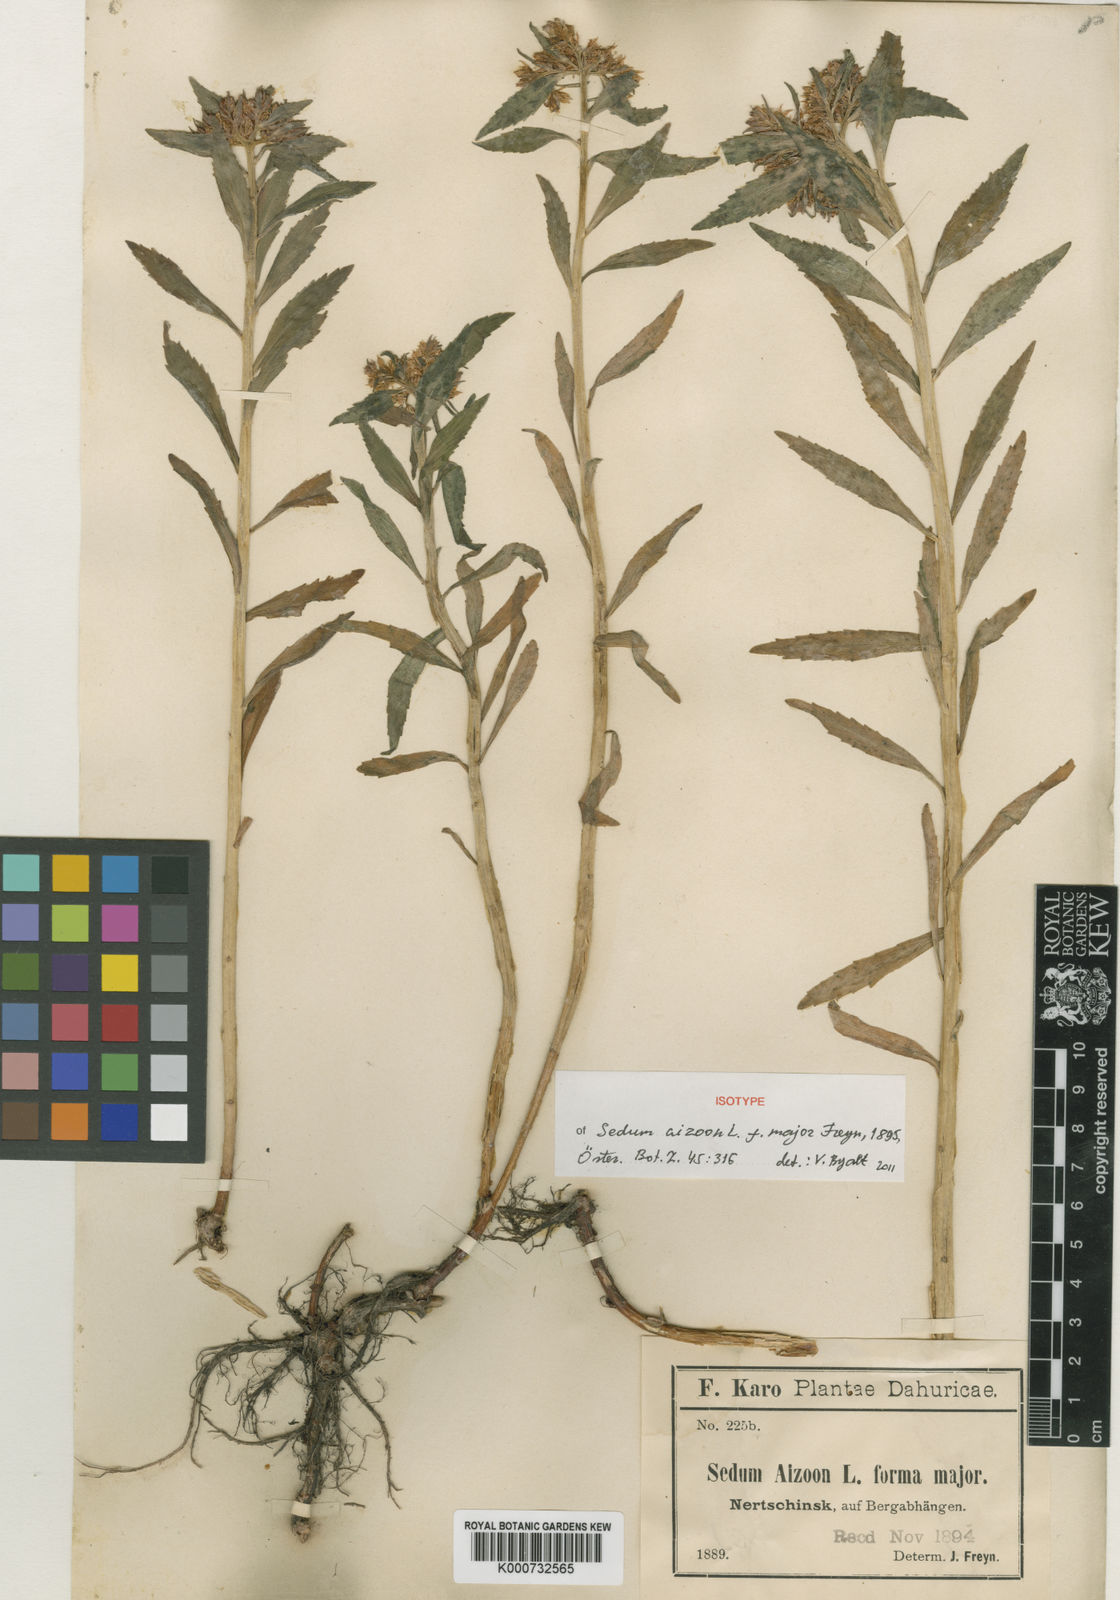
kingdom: Plantae
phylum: Tracheophyta
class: Magnoliopsida
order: Saxifragales
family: Crassulaceae
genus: Phedimus
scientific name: Phedimus aizoon
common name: Orpin aizoon
